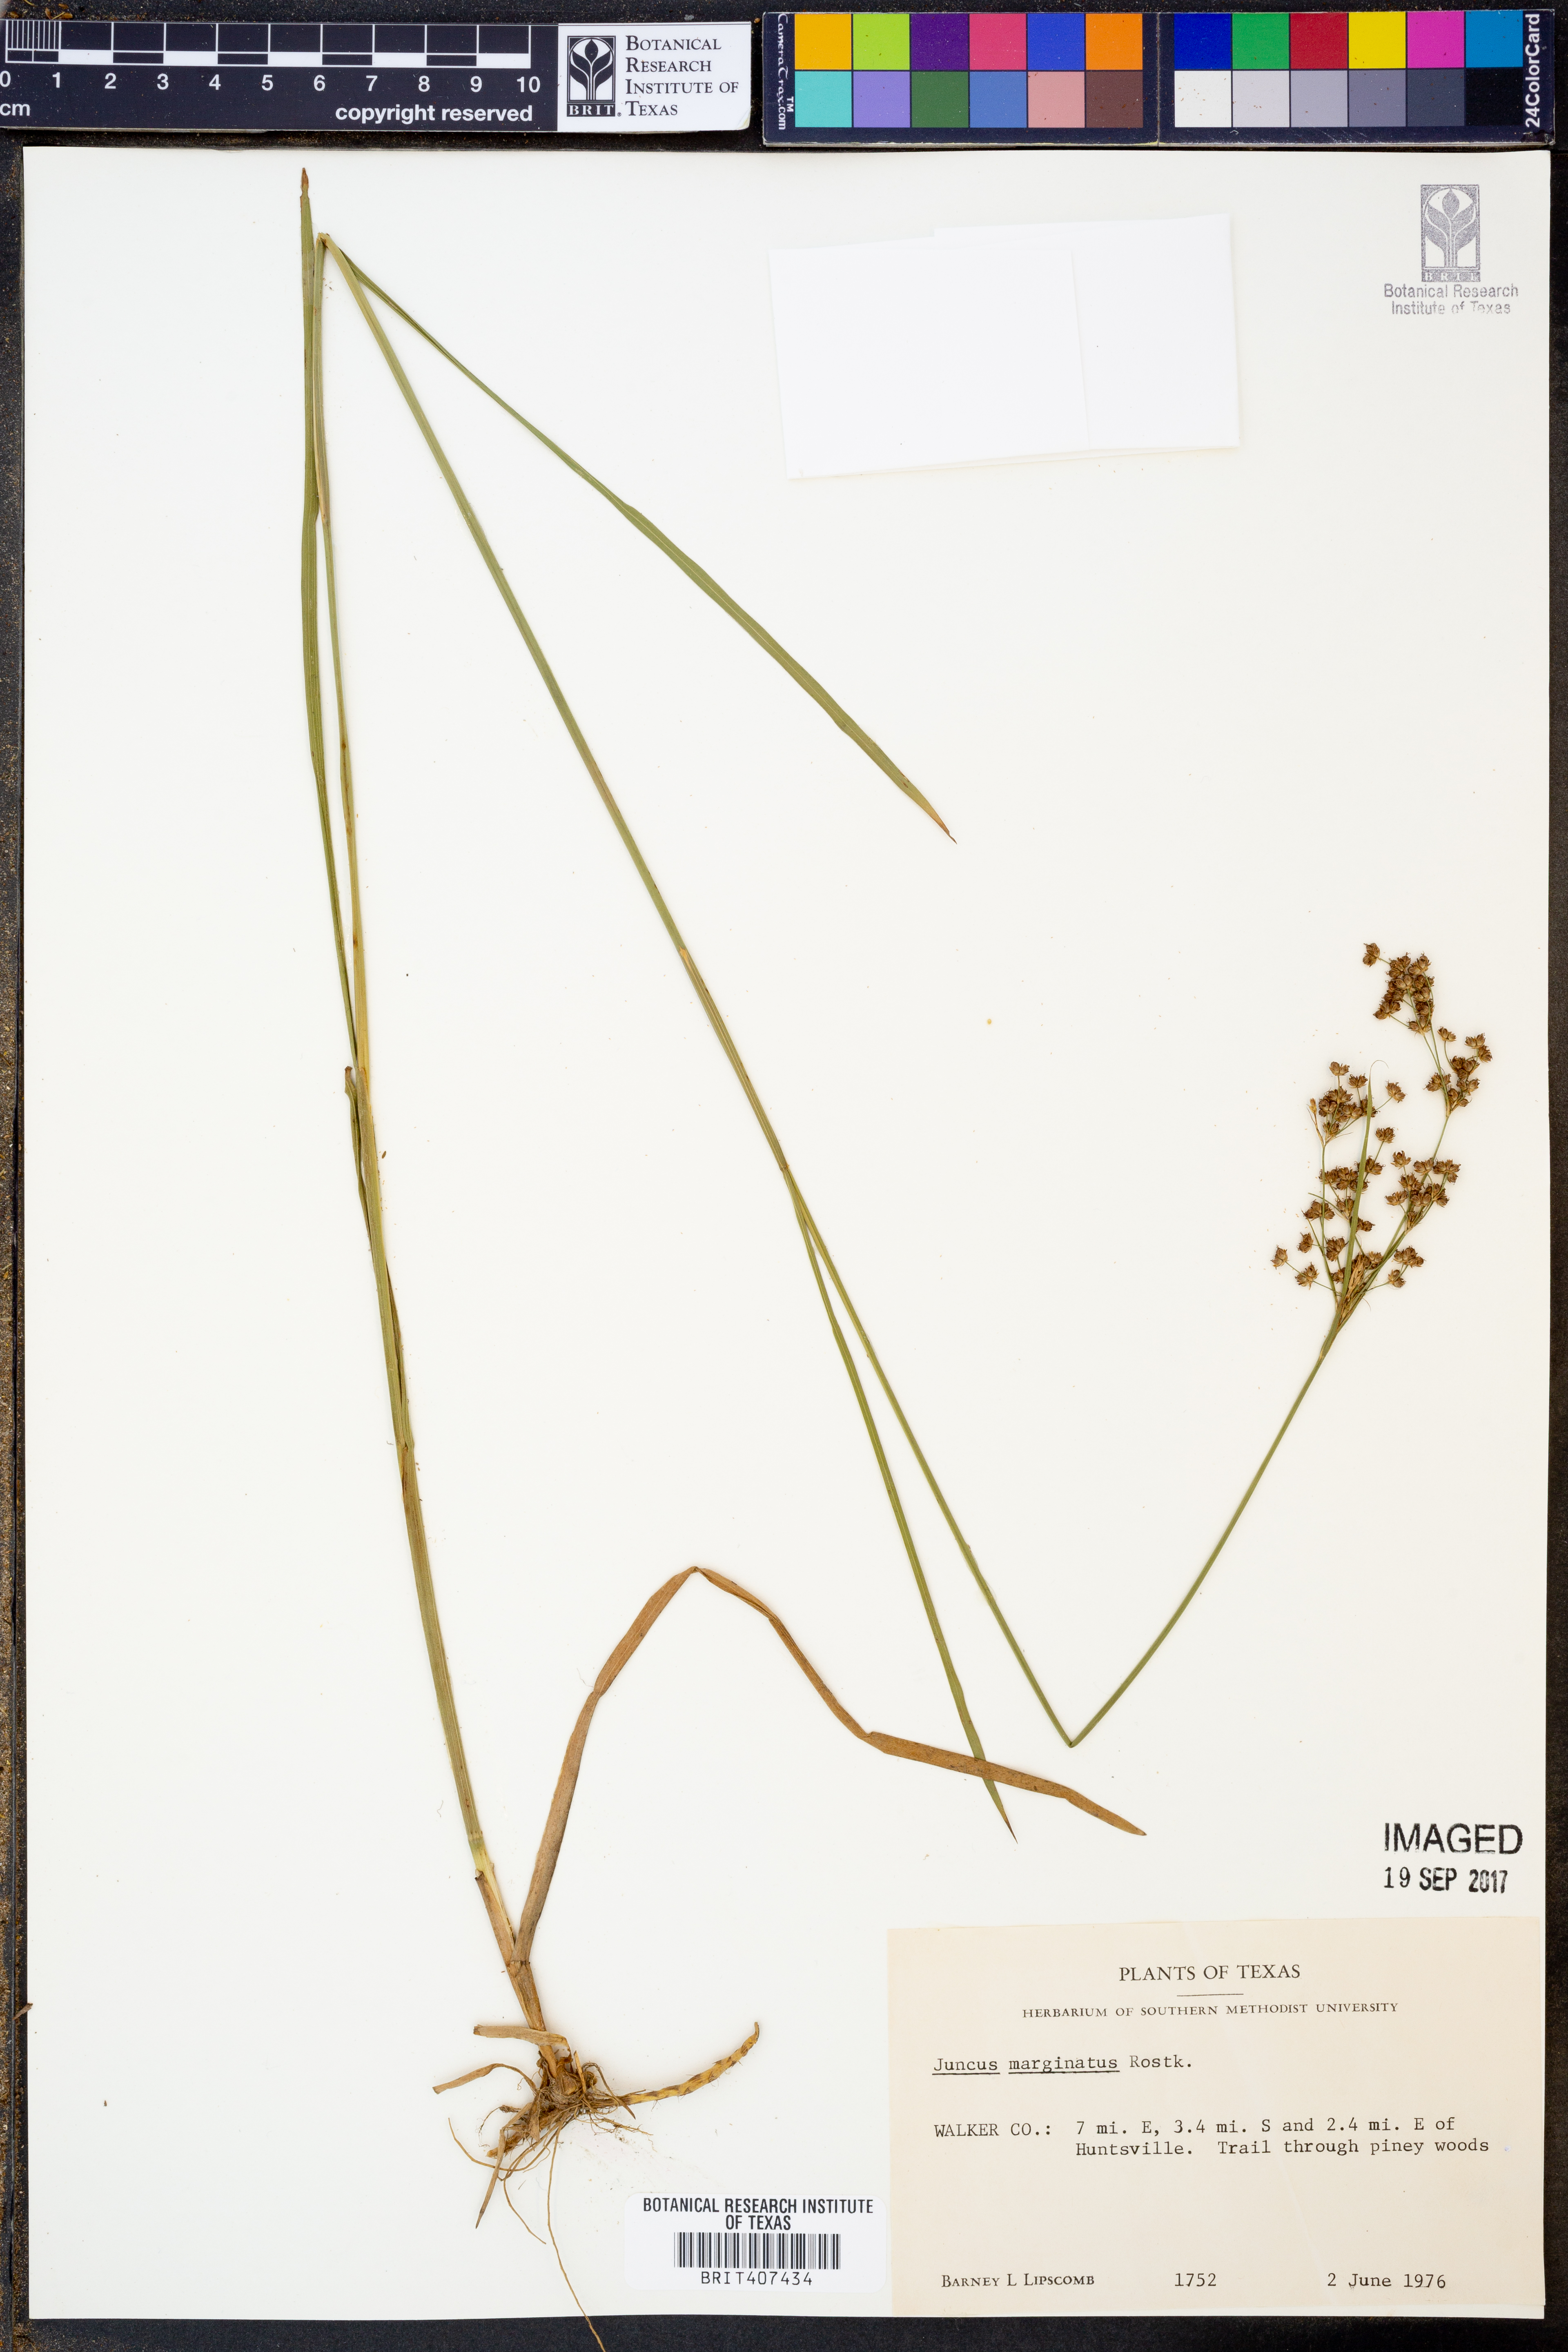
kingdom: Plantae
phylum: Tracheophyta
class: Liliopsida
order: Poales
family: Juncaceae
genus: Juncus
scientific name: Juncus marginatus
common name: Grass-leaf rush
